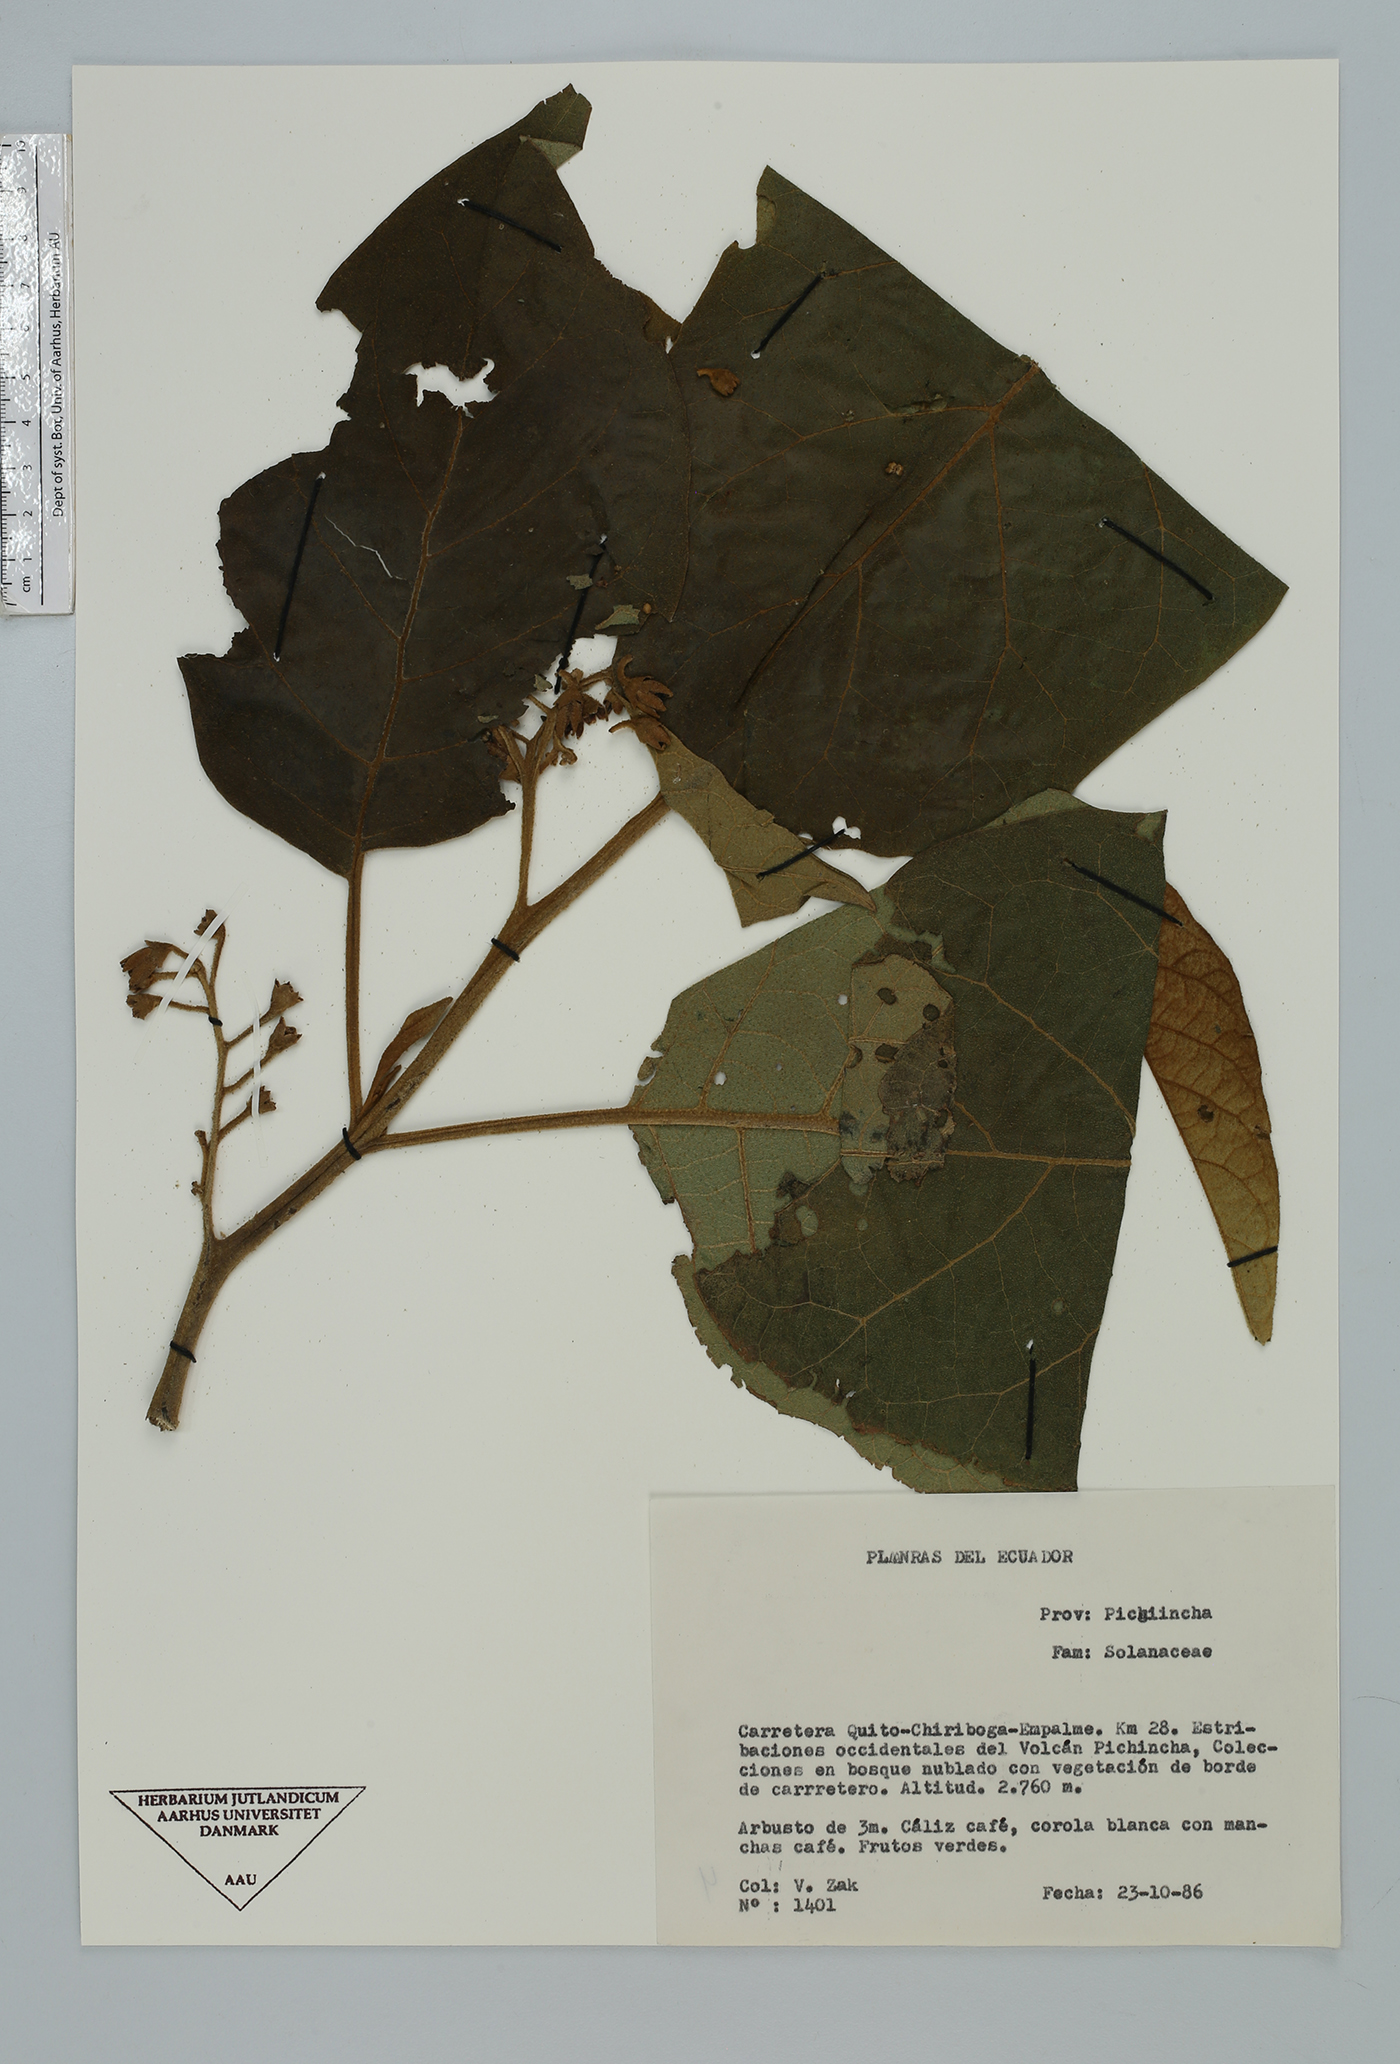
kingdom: Plantae
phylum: Tracheophyta
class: Magnoliopsida
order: Solanales
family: Solanaceae
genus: Solanum
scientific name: Solanum
